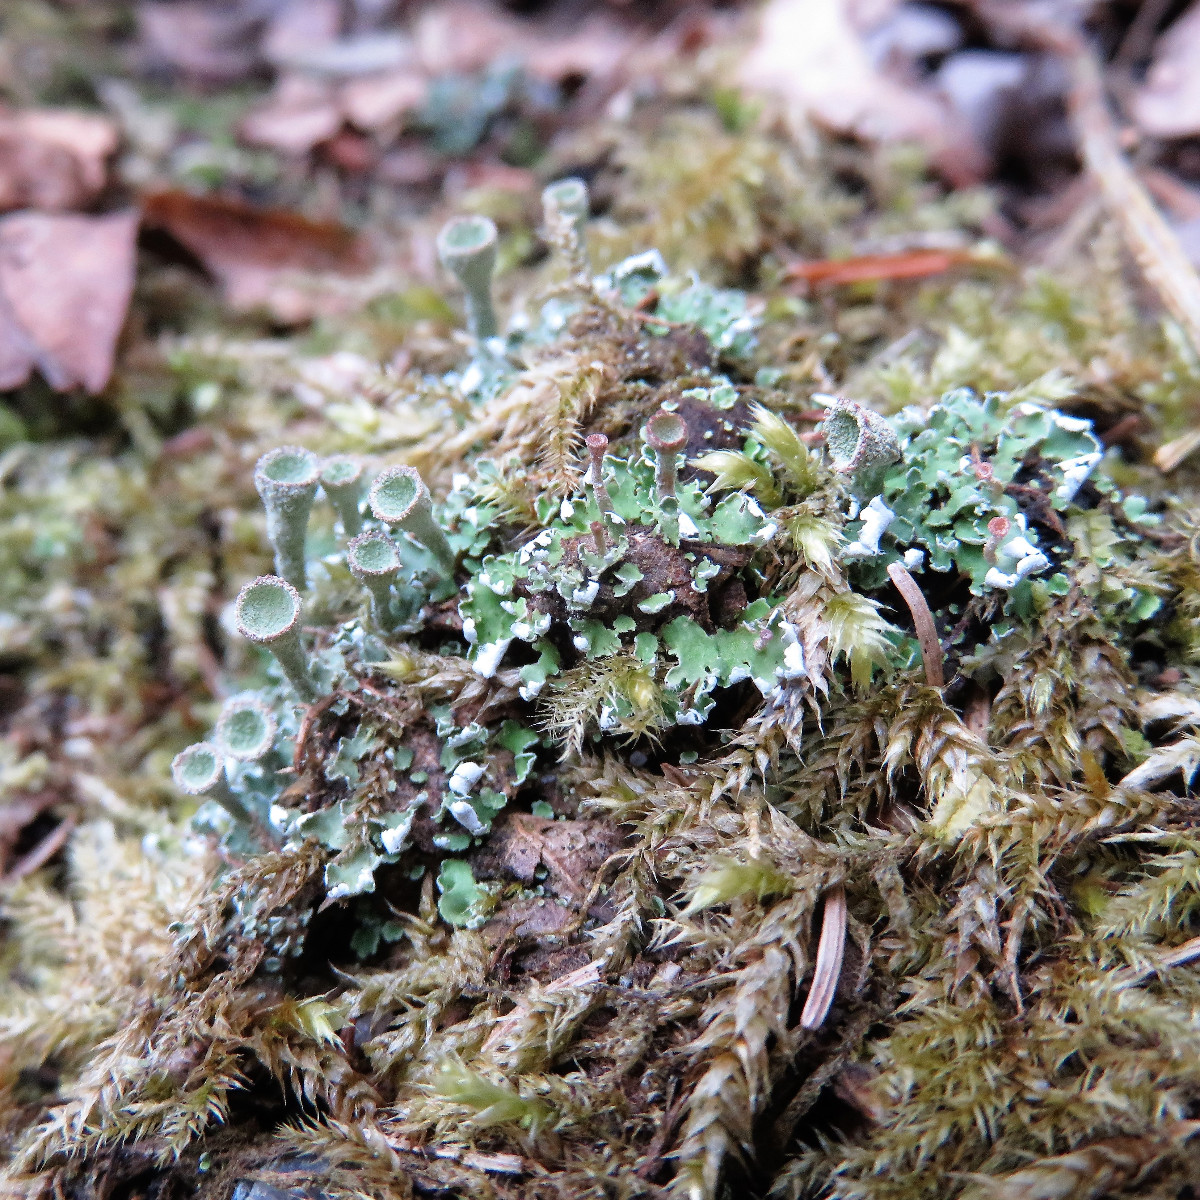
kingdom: Fungi
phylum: Ascomycota
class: Lecanoromycetes
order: Lecanorales
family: Cladoniaceae
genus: Cladonia
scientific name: Cladonia
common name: brungrøn bægerlav
